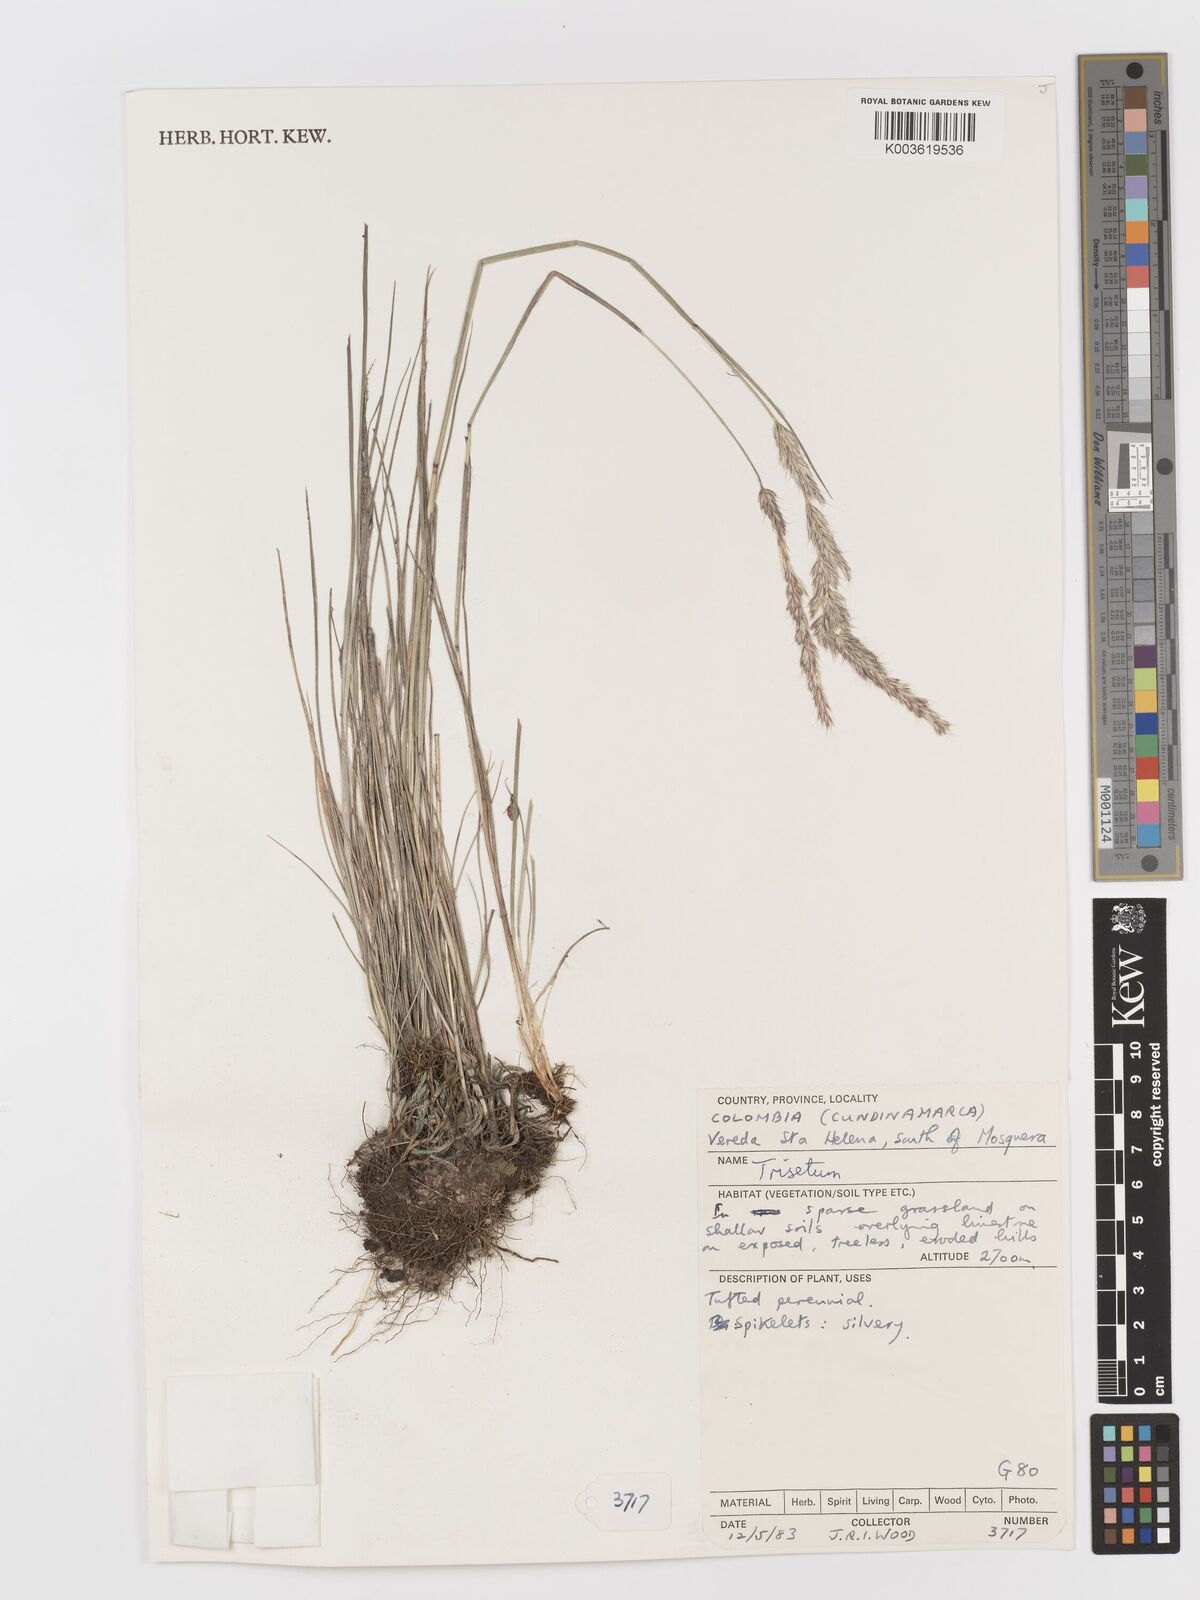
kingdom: Plantae
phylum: Tracheophyta
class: Liliopsida
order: Poales
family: Poaceae
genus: Peyritschia
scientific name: Peyritschia deyeuxioides
